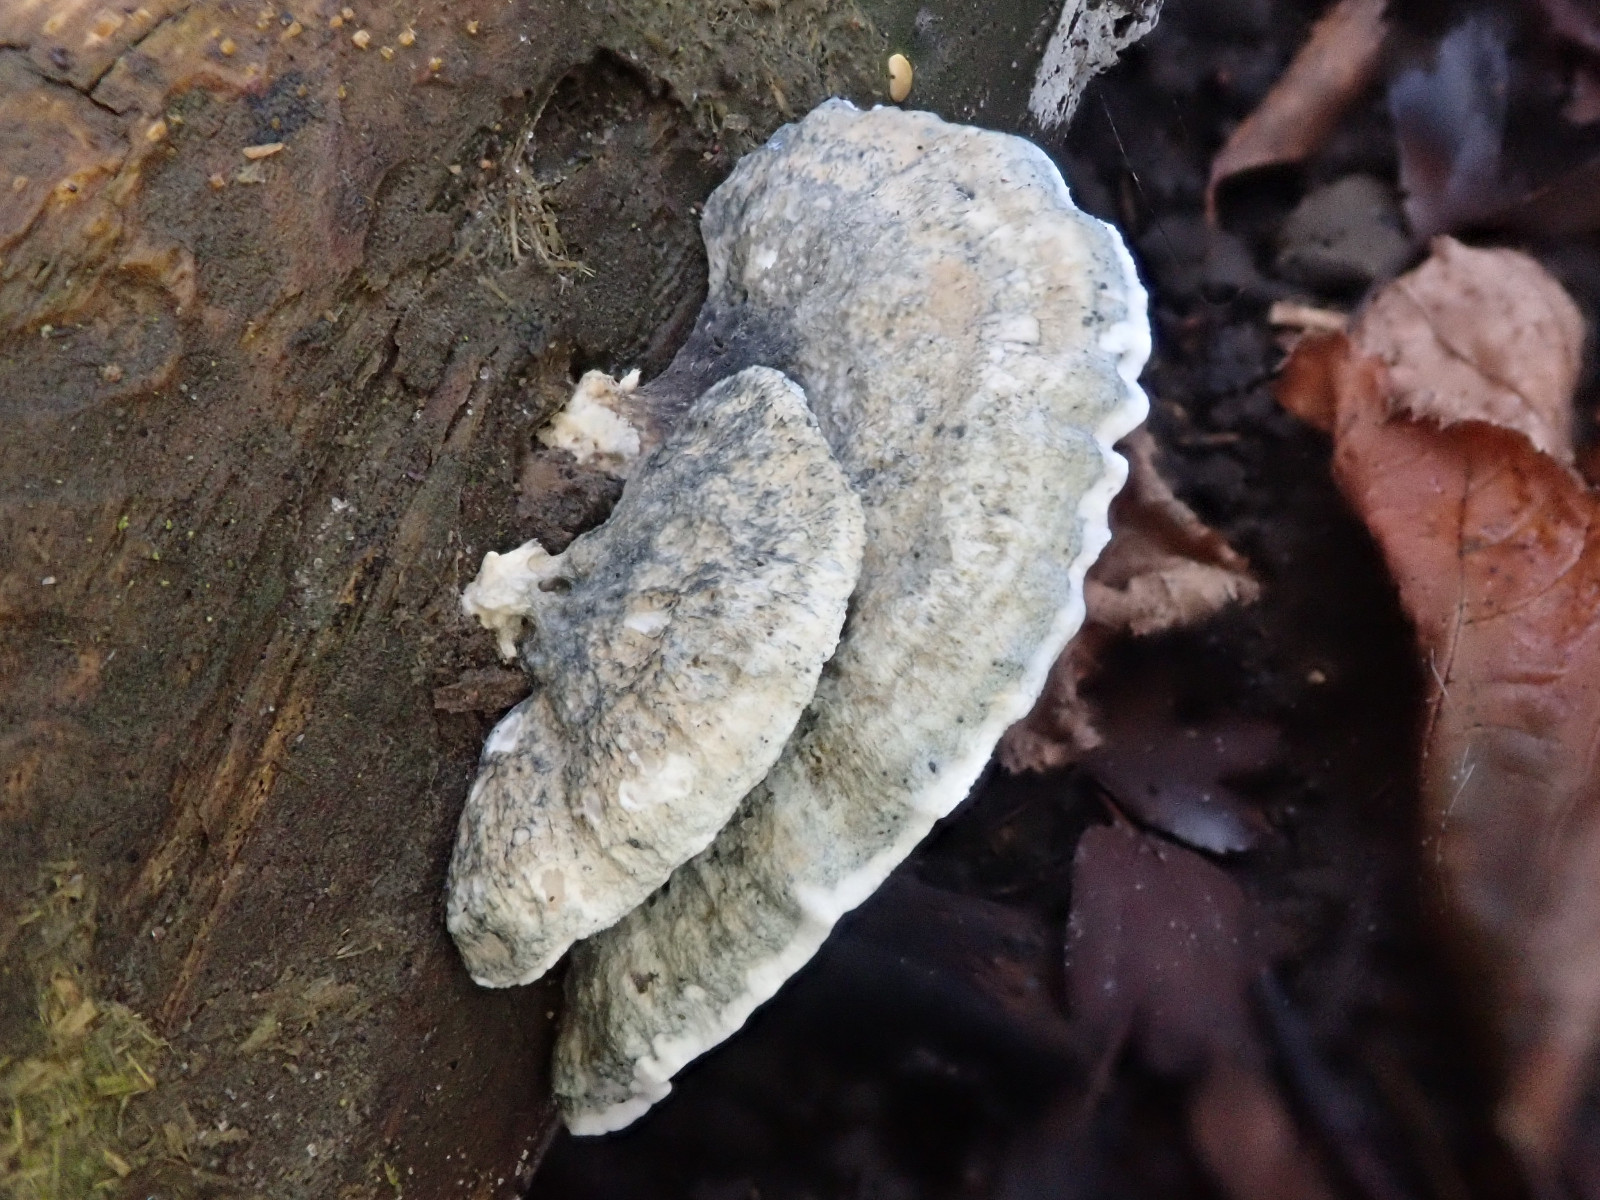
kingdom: Fungi
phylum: Basidiomycota
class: Agaricomycetes
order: Polyporales
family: Polyporaceae
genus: Cyanosporus
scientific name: Cyanosporus caesius
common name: blålig kødporesvamp
